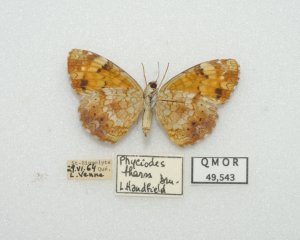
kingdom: Animalia
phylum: Arthropoda
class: Insecta
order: Lepidoptera
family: Nymphalidae
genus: Phyciodes
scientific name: Phyciodes tharos
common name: Northern Crescent
